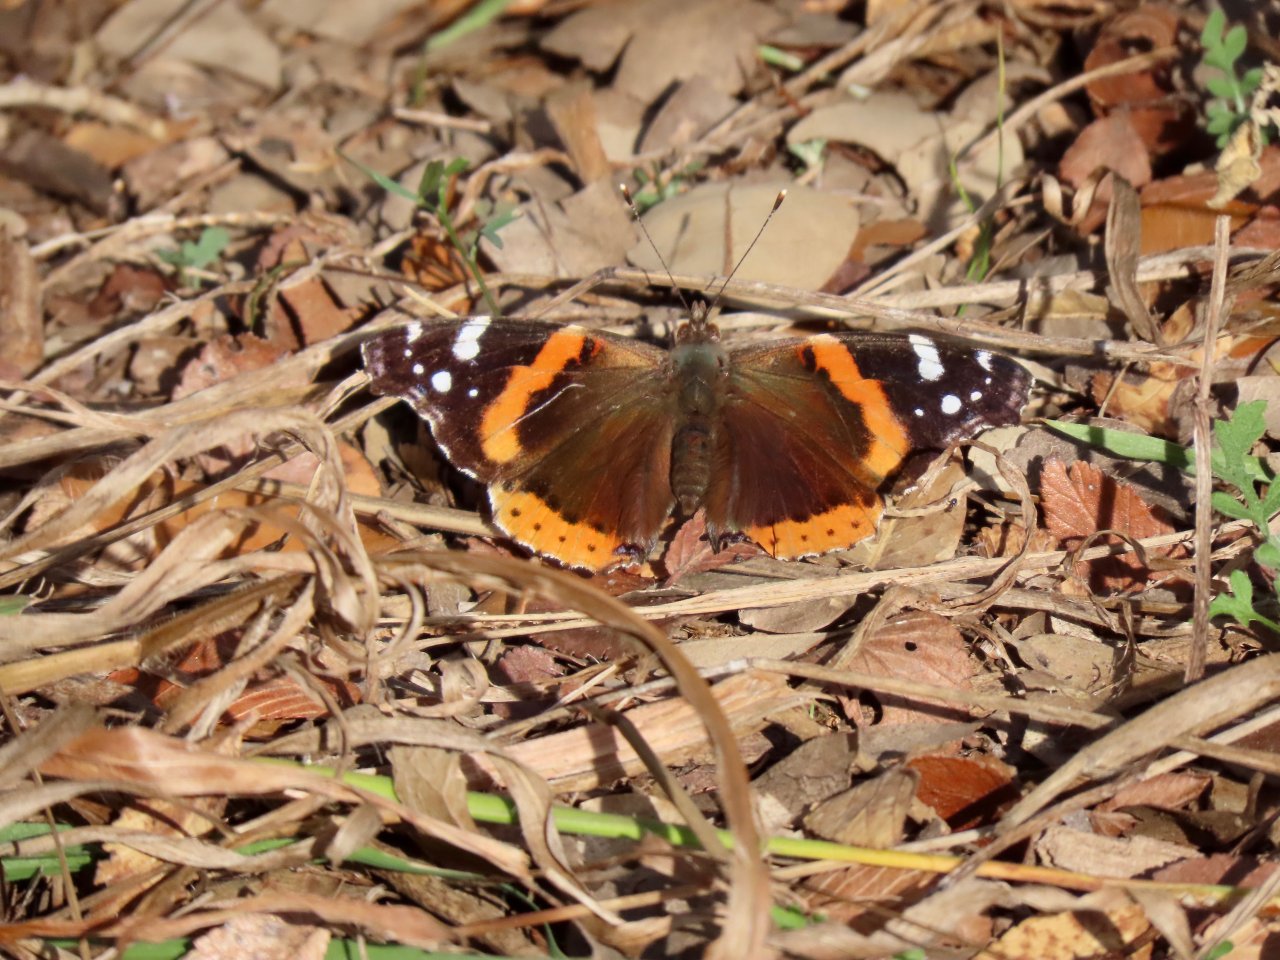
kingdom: Animalia
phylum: Arthropoda
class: Insecta
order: Lepidoptera
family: Nymphalidae
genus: Vanessa
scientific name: Vanessa atalanta
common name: Red Admiral
